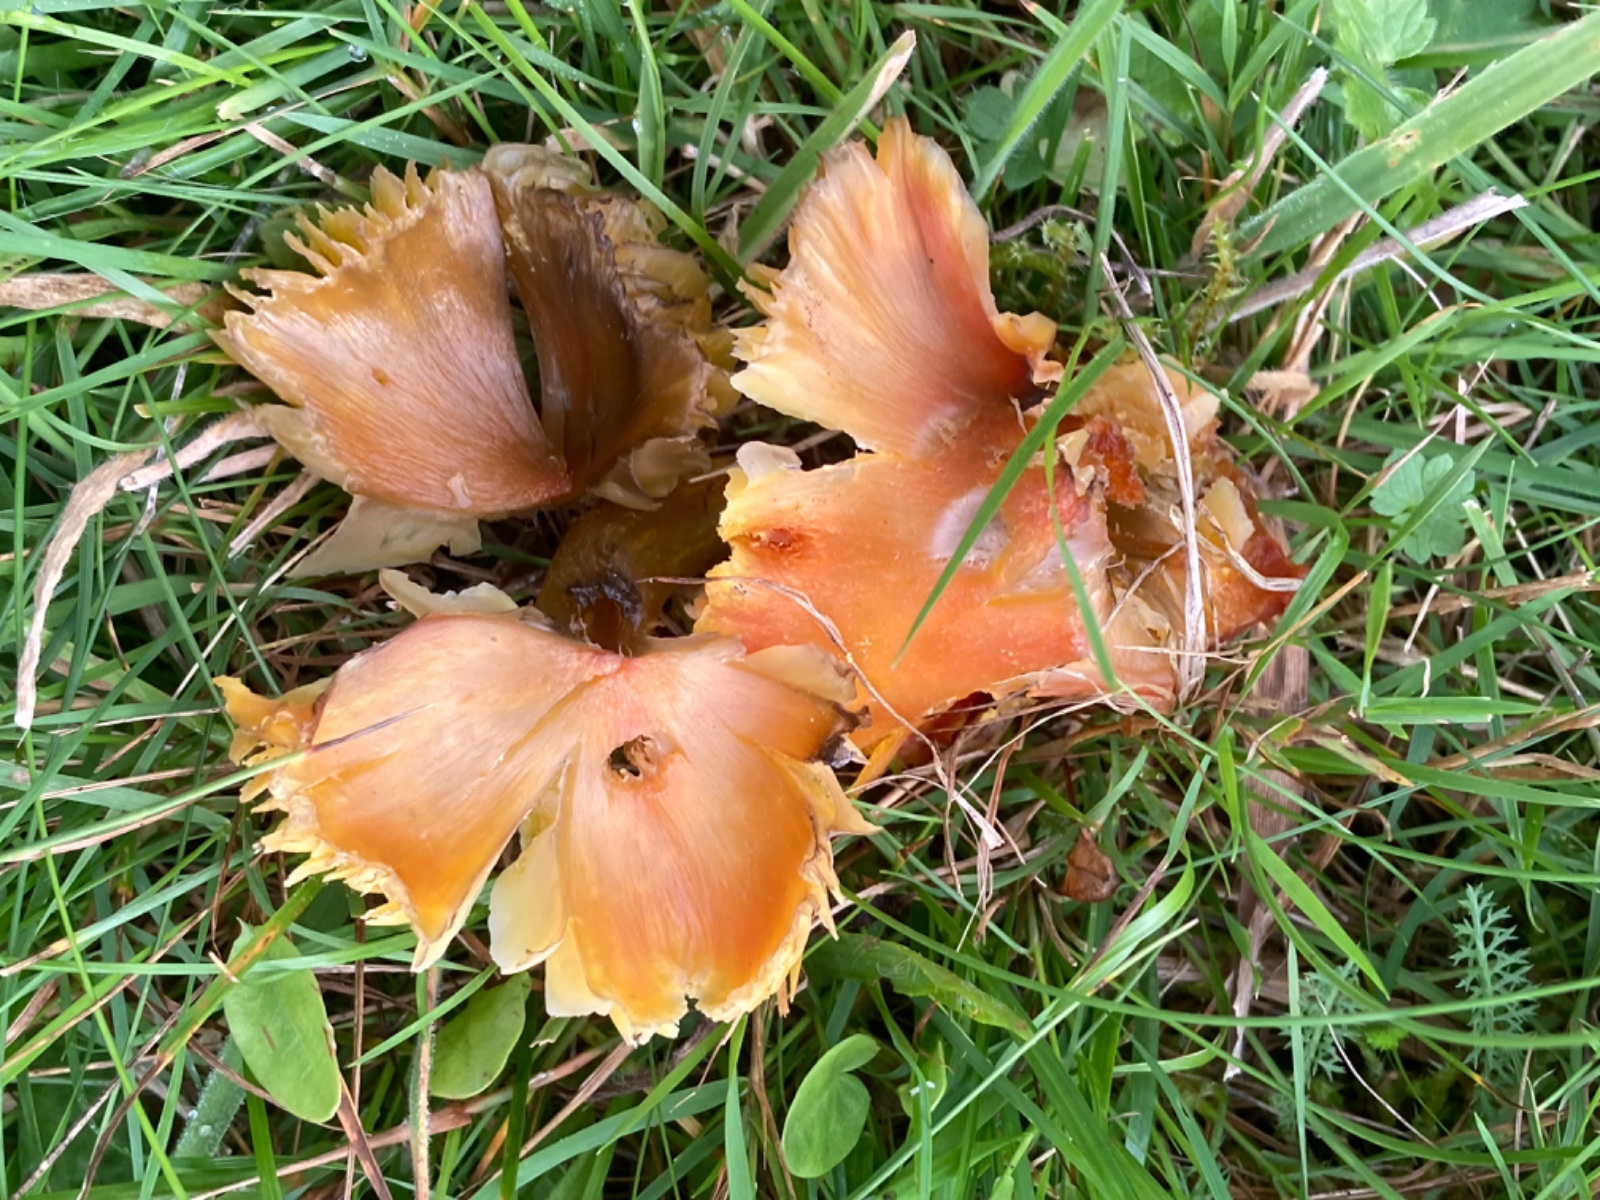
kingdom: Fungi
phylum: Basidiomycota
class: Agaricomycetes
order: Agaricales
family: Hygrophoraceae
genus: Hygrocybe
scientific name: Hygrocybe
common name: vokshat
